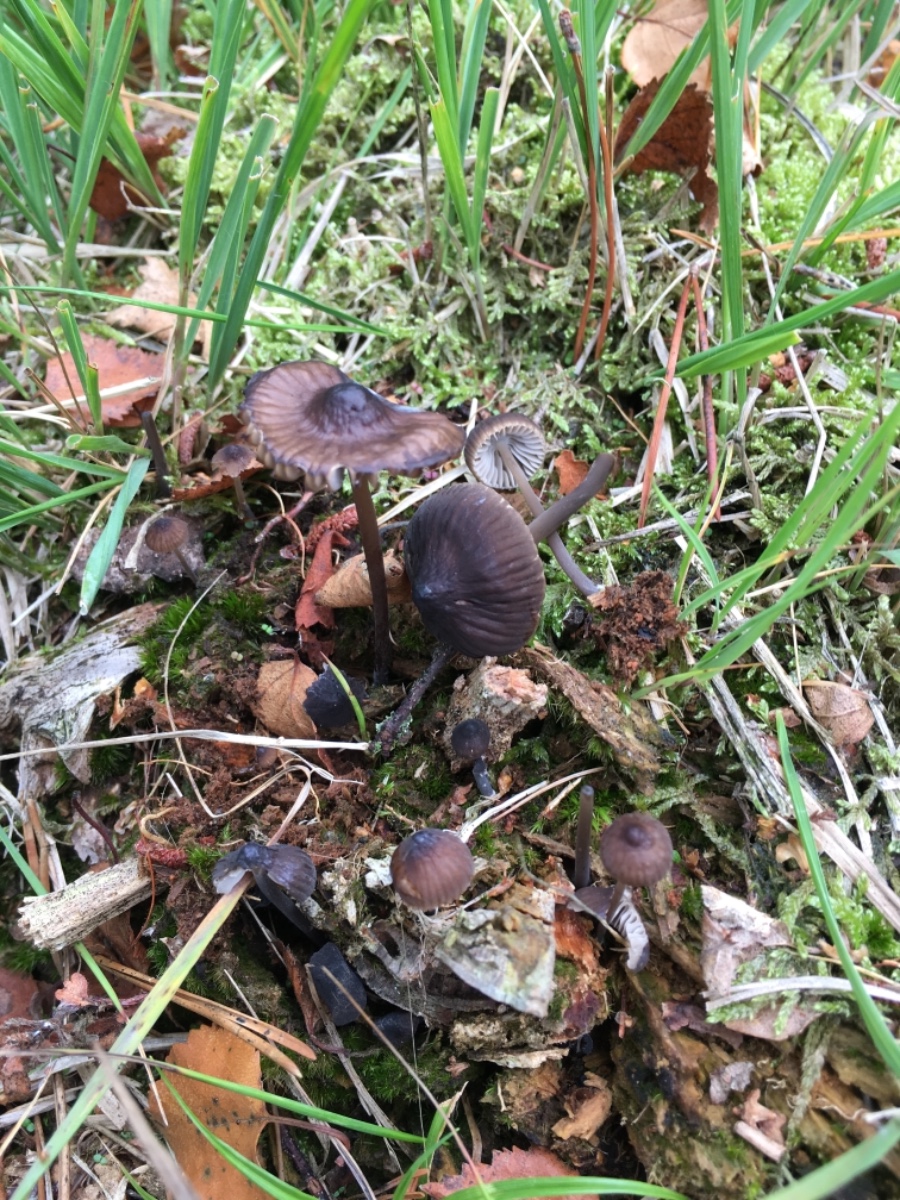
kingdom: Fungi
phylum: Basidiomycota
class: Agaricomycetes
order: Agaricales
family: Mycenaceae
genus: Mycena
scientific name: Mycena megaspora
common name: brusk-huesvamp
